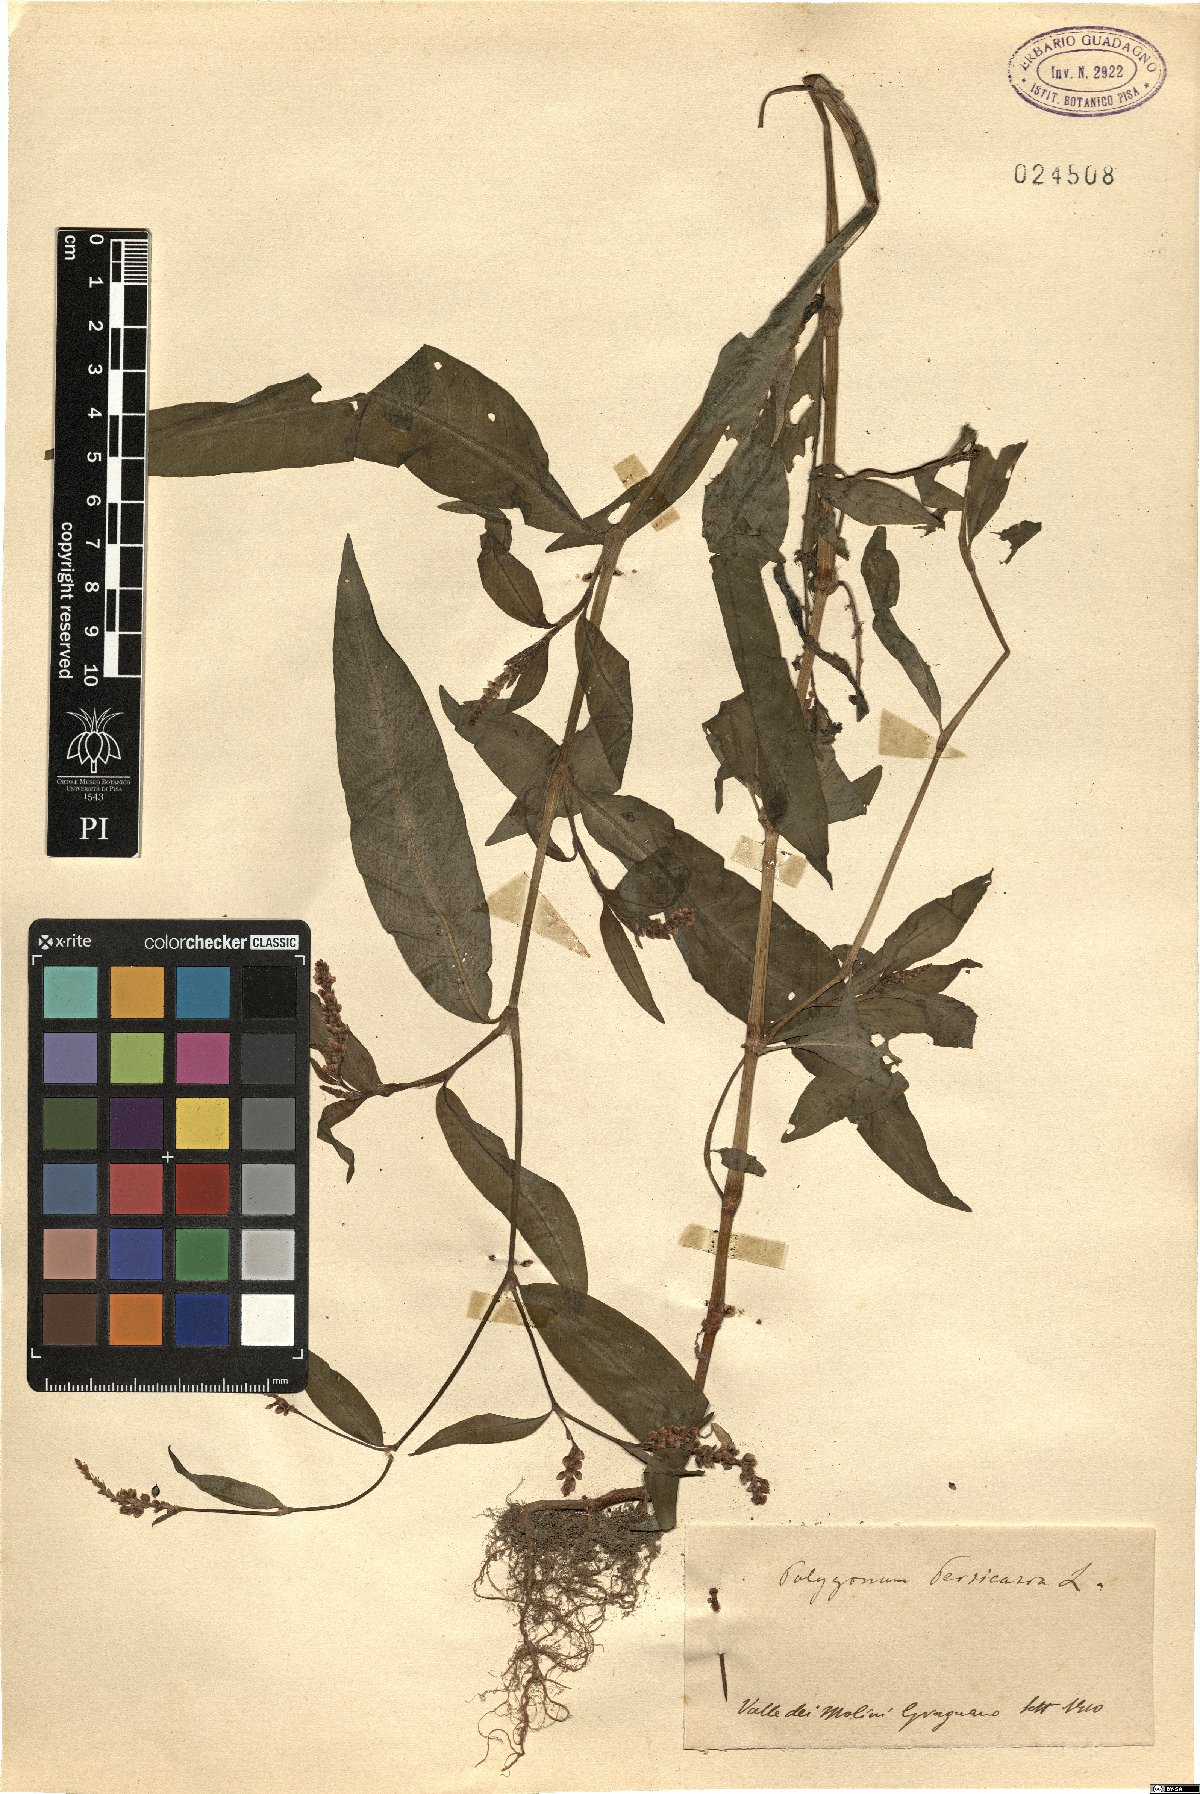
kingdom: Plantae
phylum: Tracheophyta
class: Magnoliopsida
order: Caryophyllales
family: Polygonaceae
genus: Persicaria
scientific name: Persicaria maculosa
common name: Redshank
